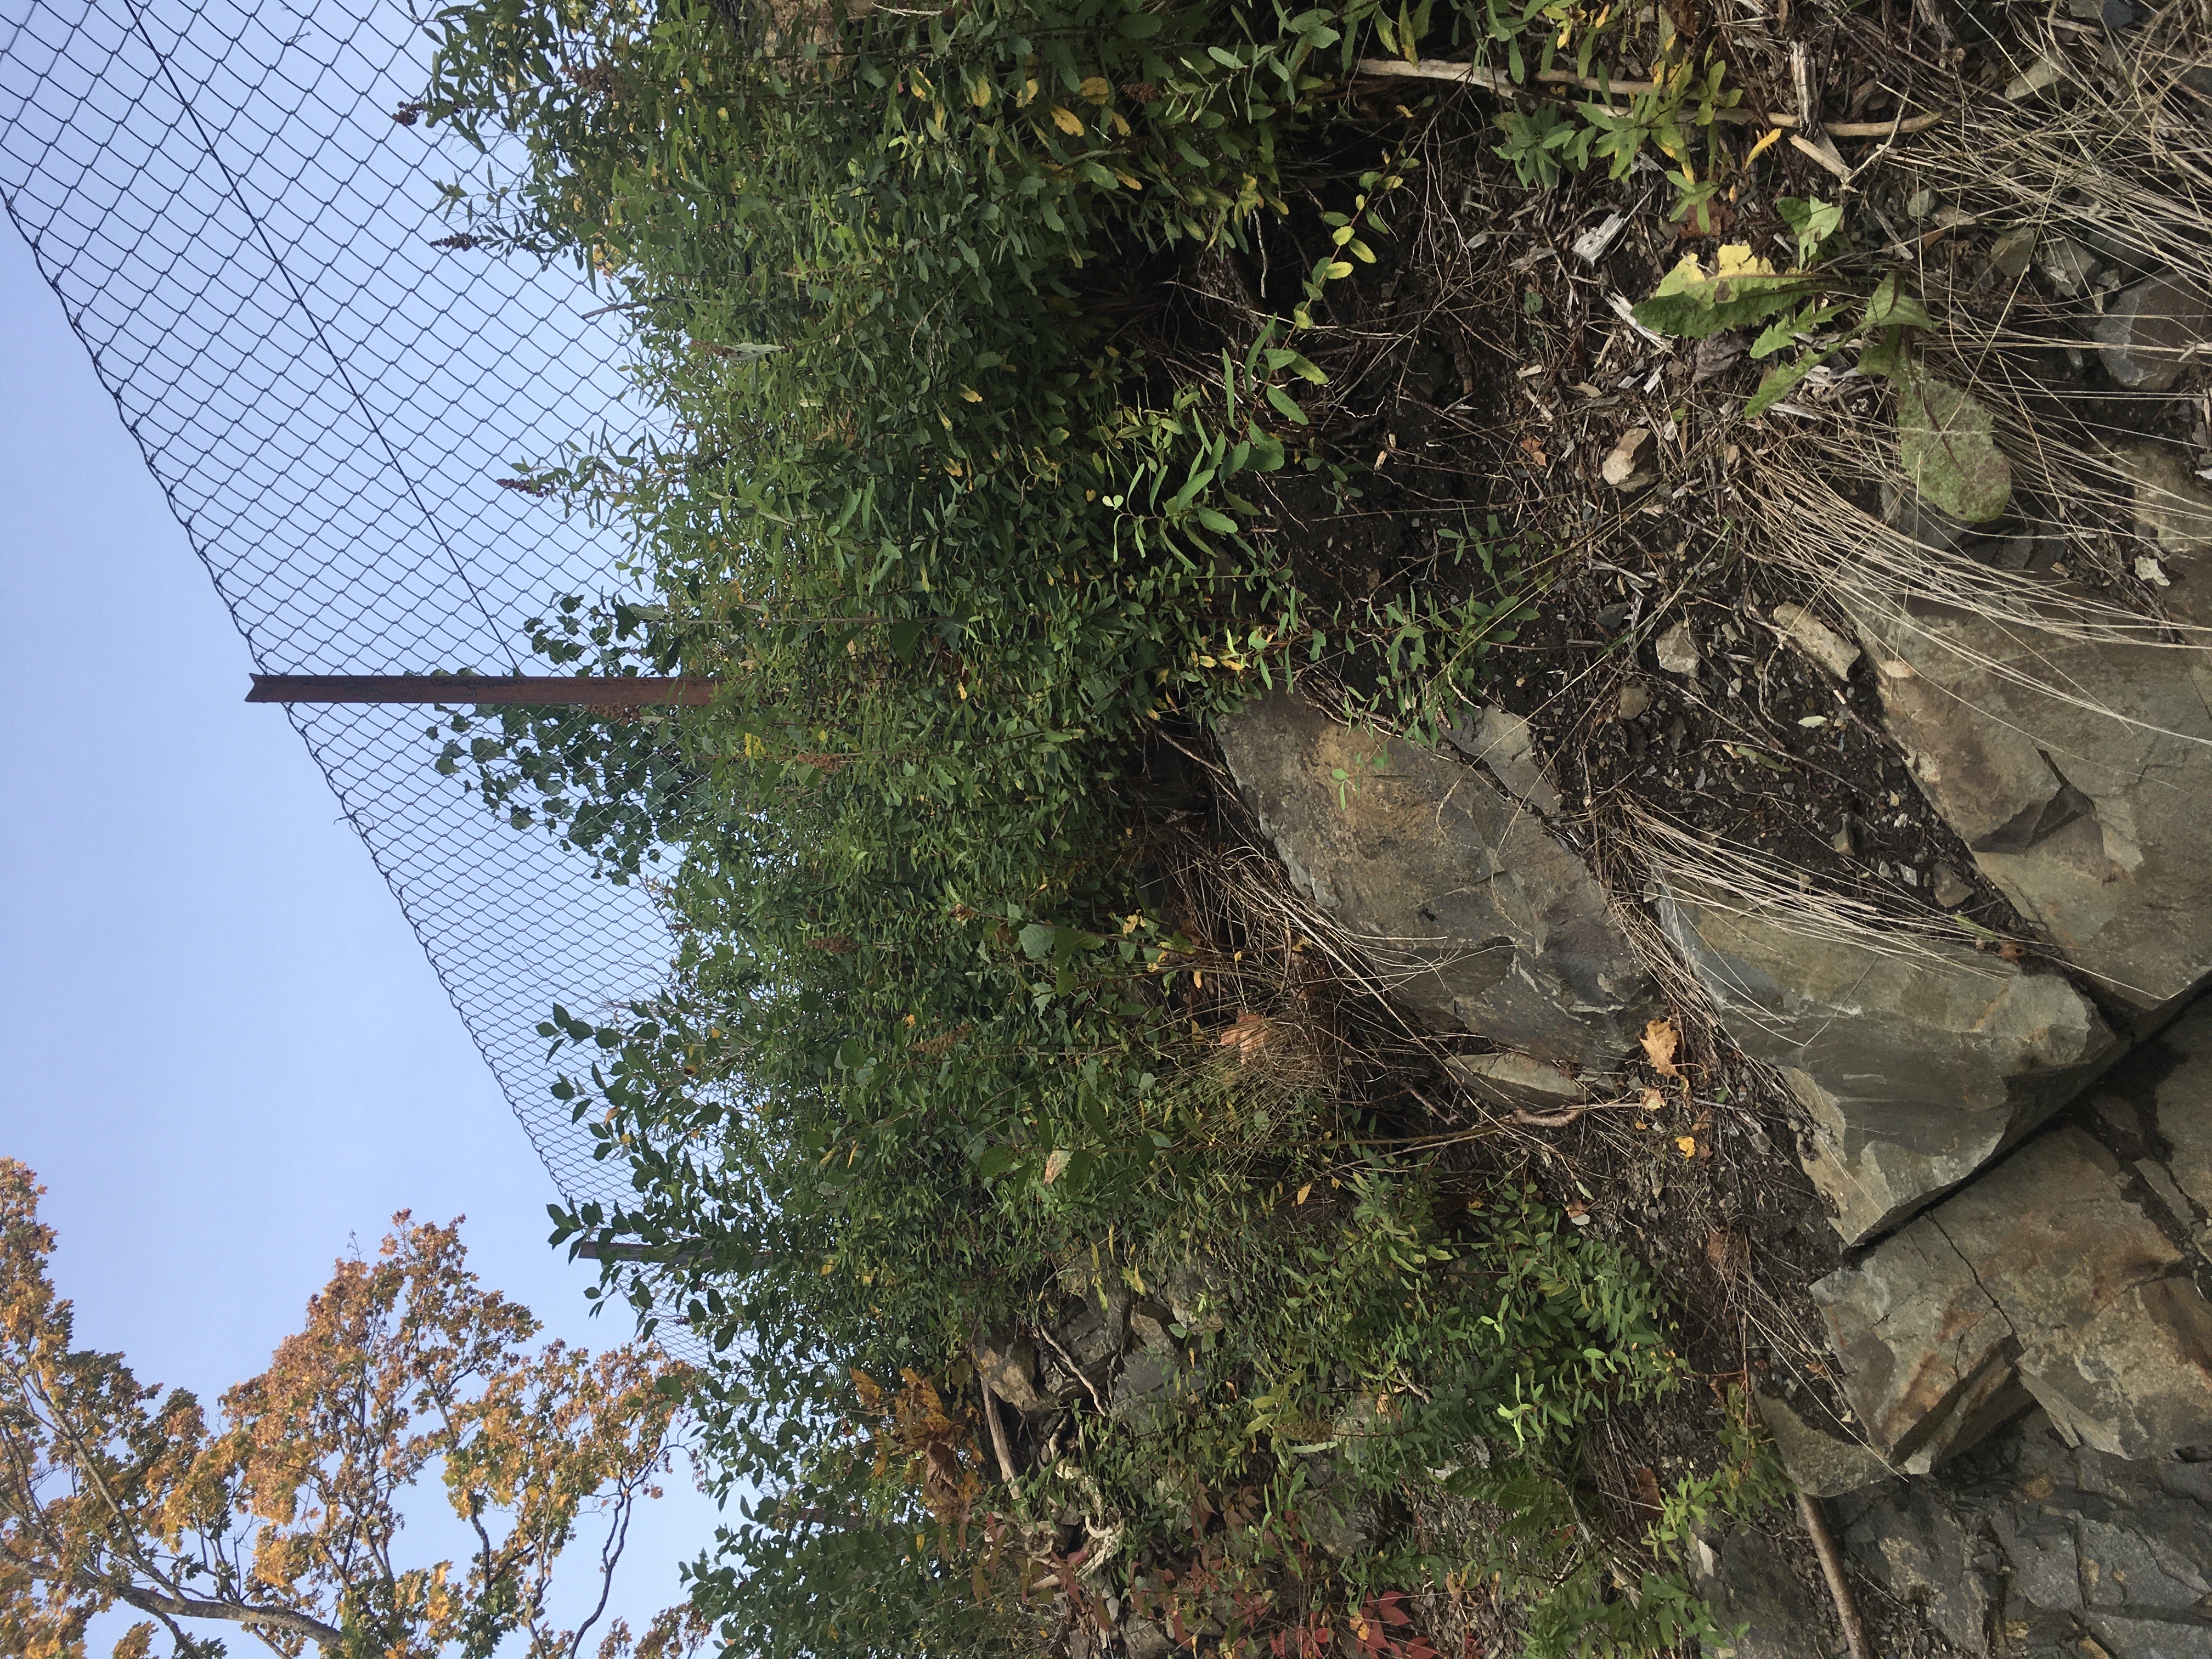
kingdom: Plantae
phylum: Tracheophyta
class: Magnoliopsida
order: Rosales
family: Rosaceae
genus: Spiraea
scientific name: Spiraea billardii
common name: klasespirea
